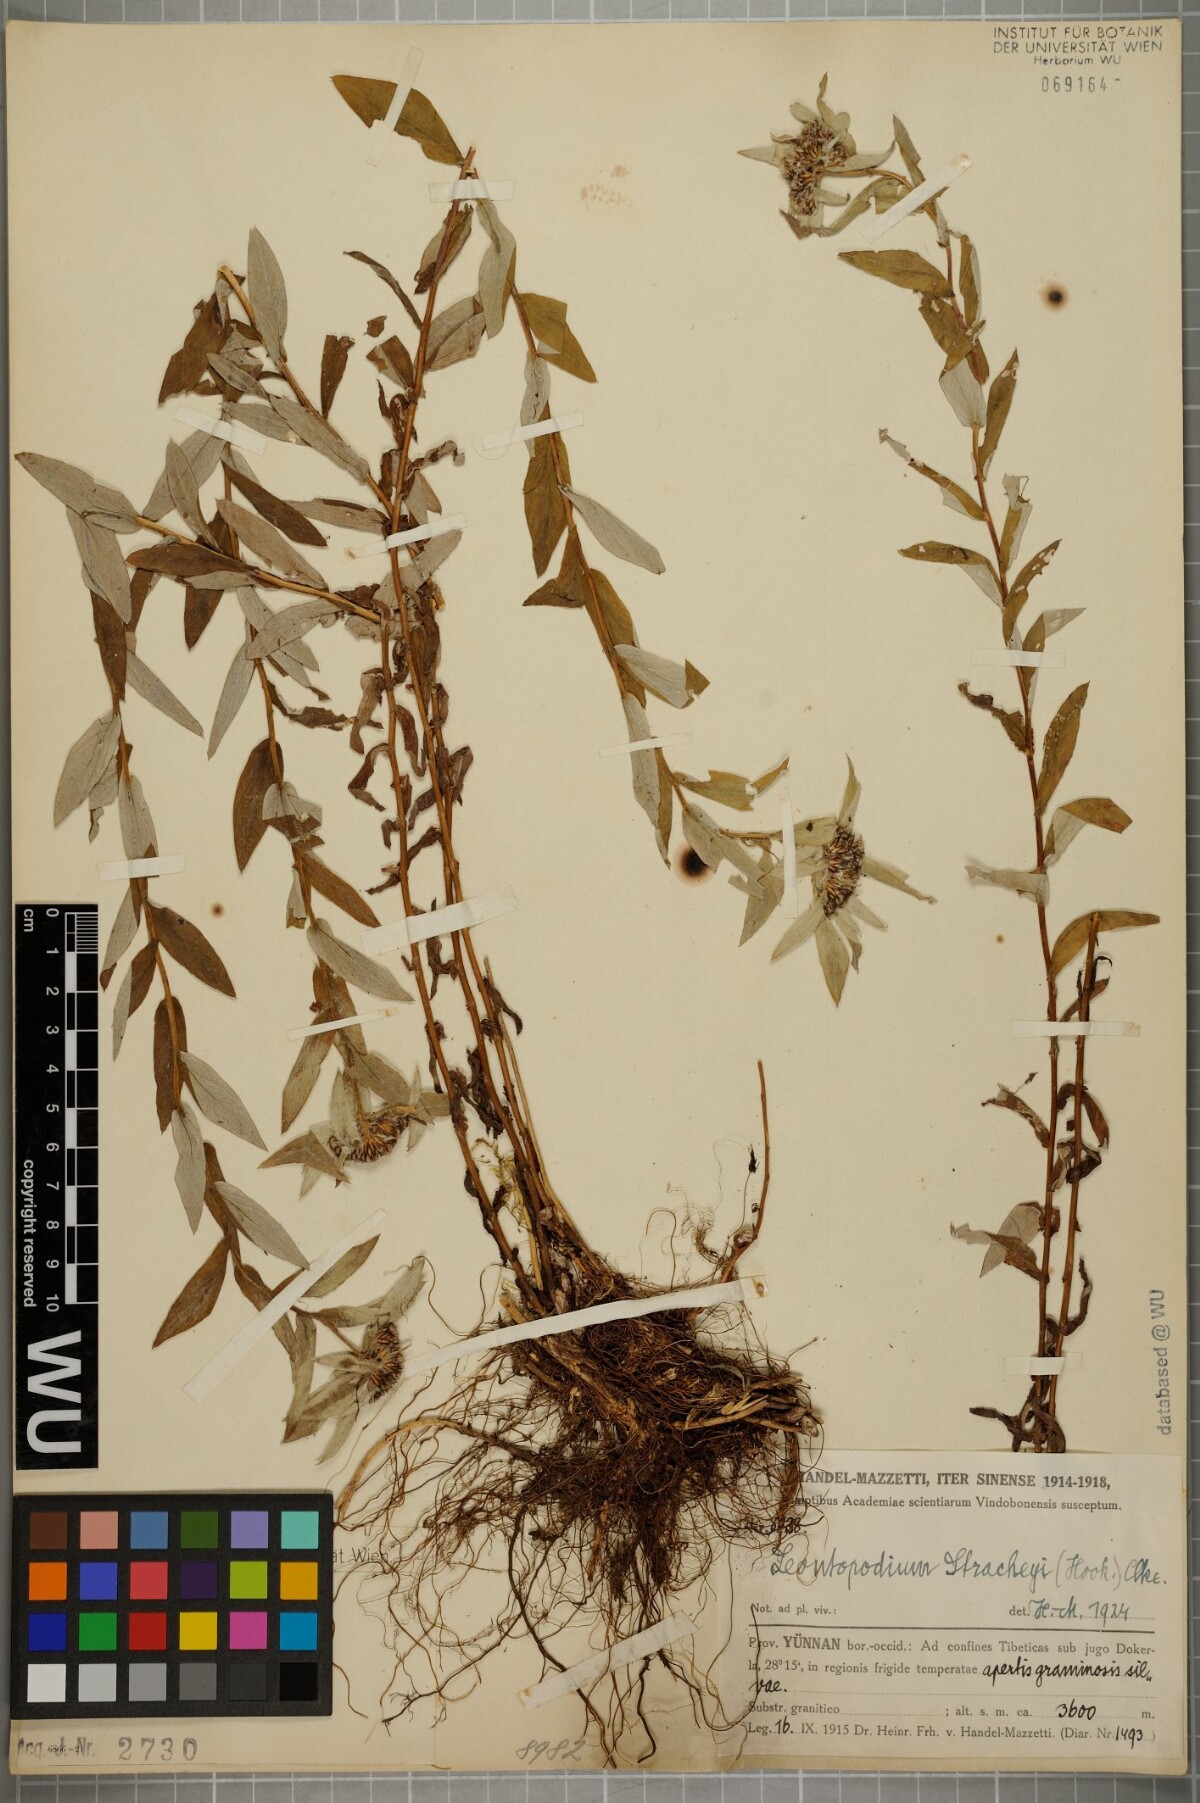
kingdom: Plantae
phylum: Tracheophyta
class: Magnoliopsida
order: Asterales
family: Asteraceae
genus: Leontopodium
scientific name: Leontopodium stracheyi
